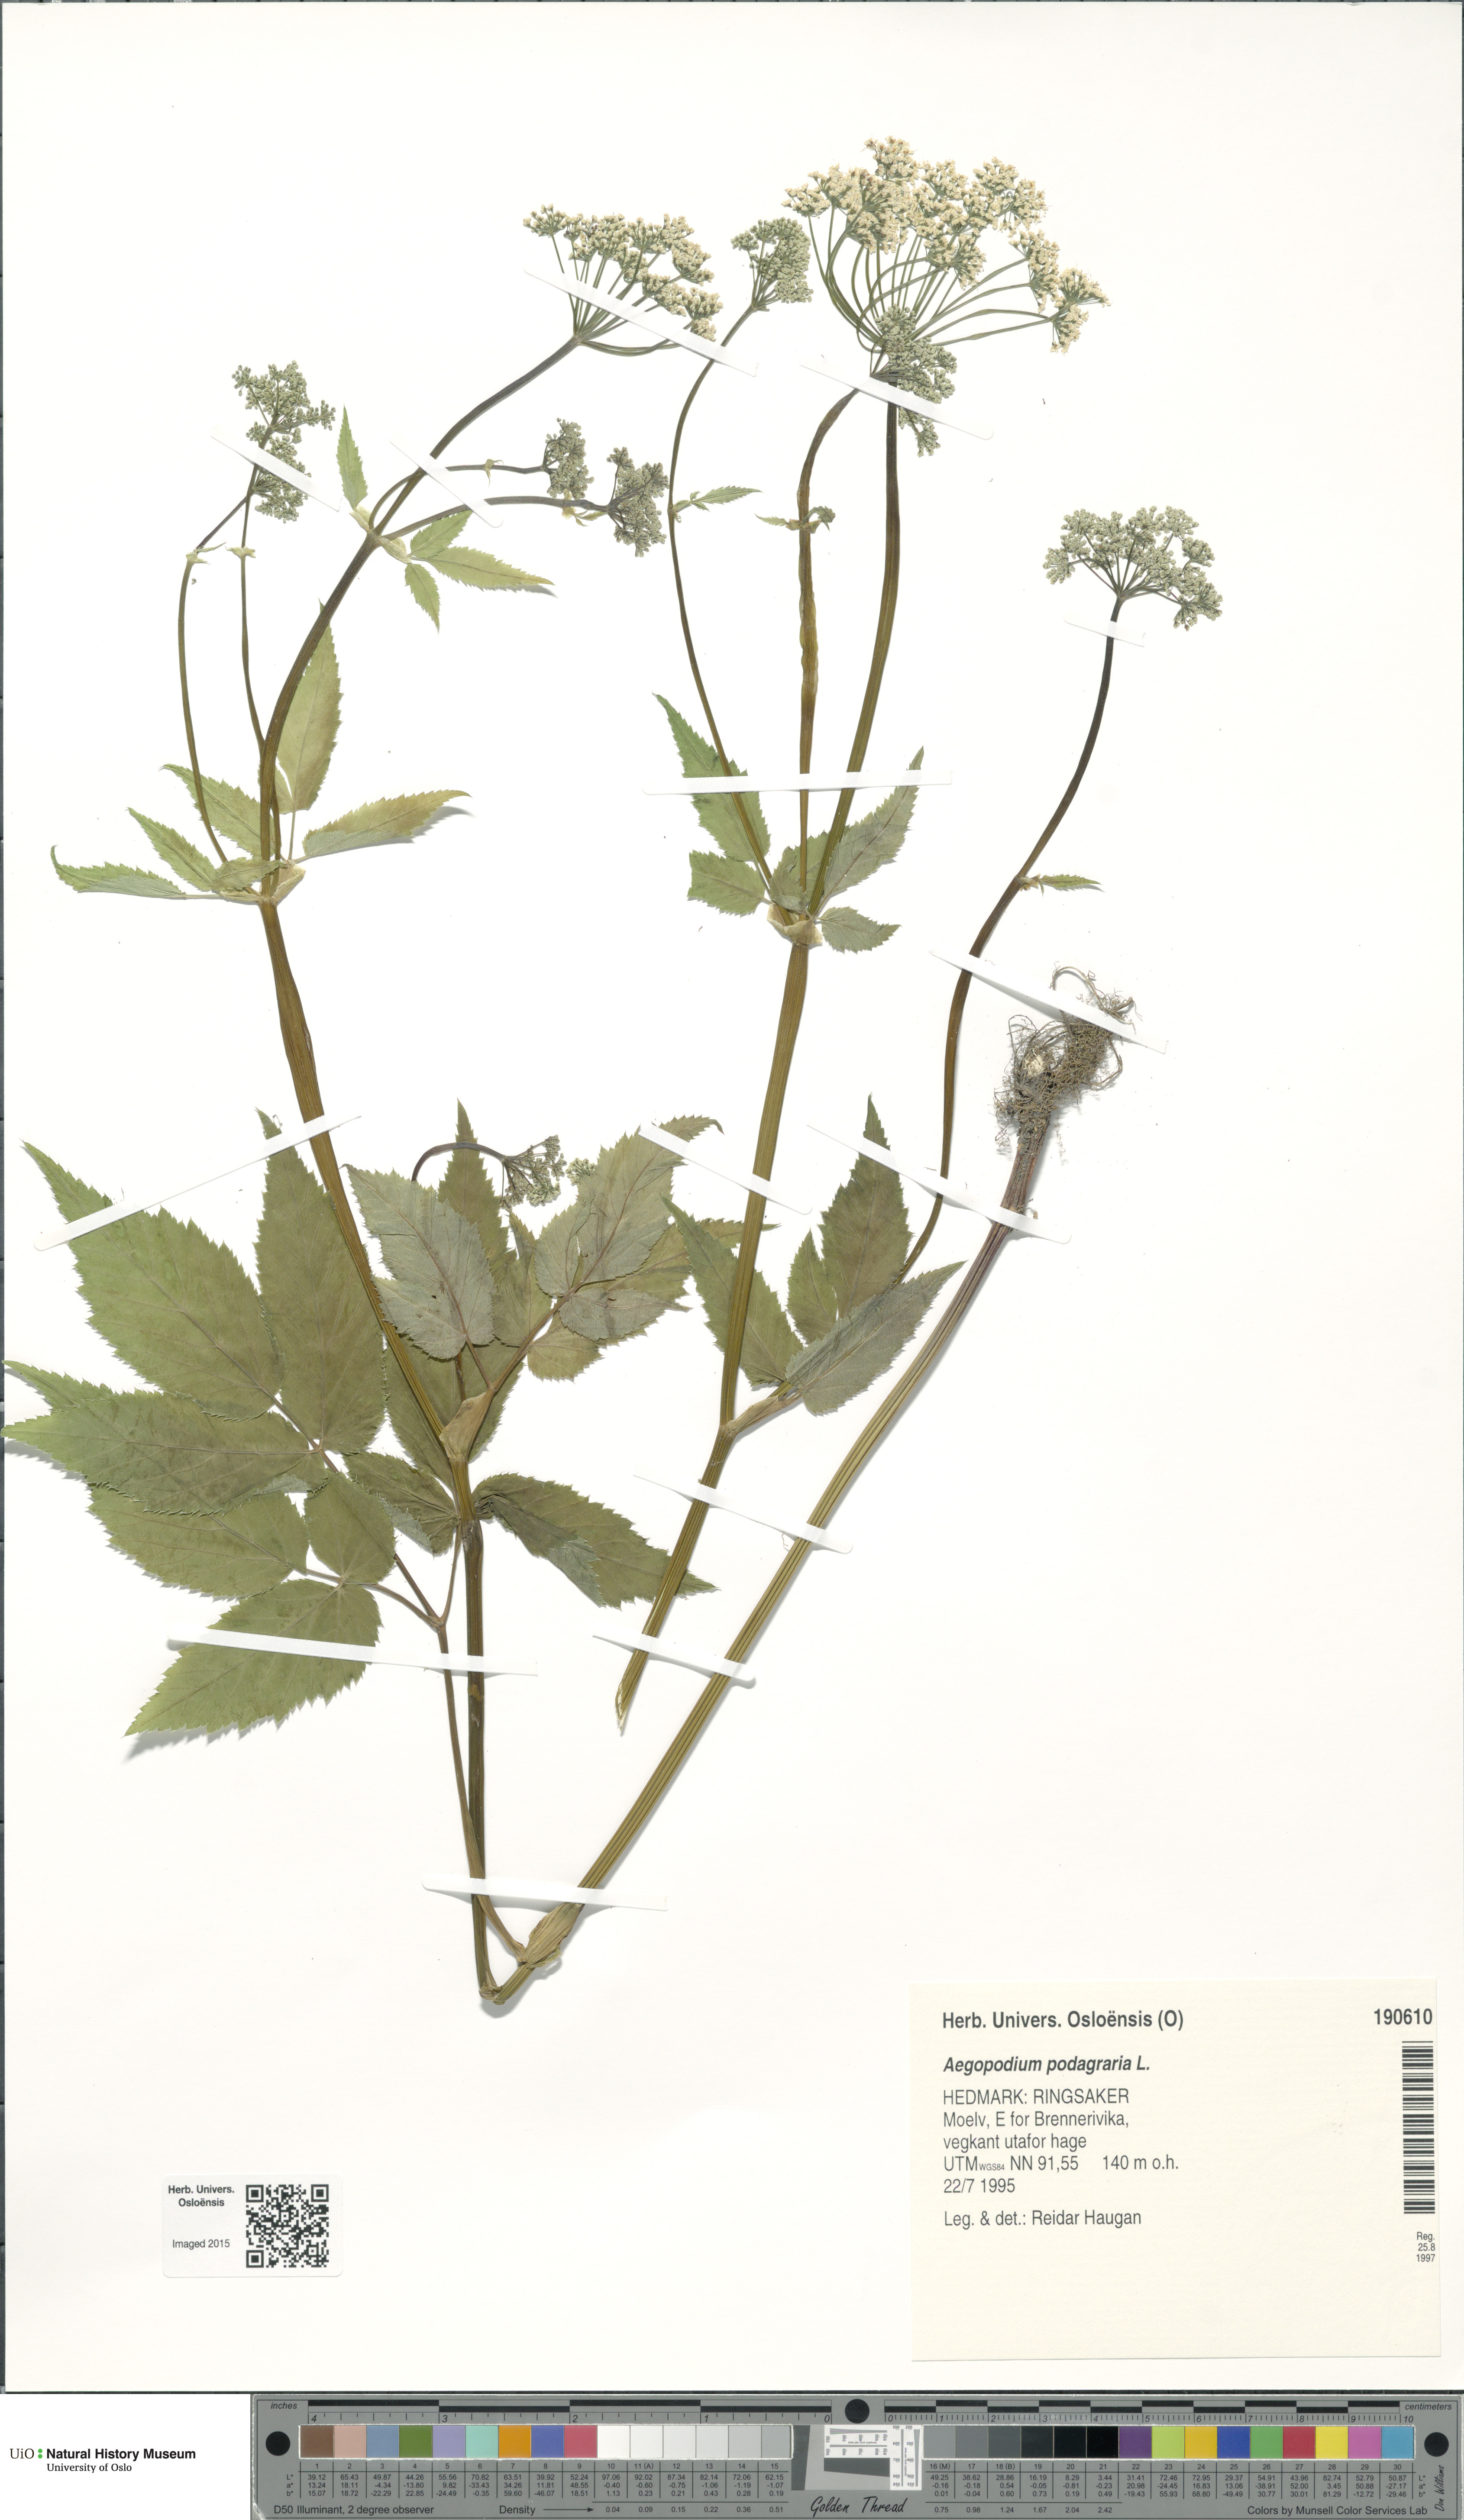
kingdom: Plantae
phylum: Tracheophyta
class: Magnoliopsida
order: Apiales
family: Apiaceae
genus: Aegopodium
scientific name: Aegopodium podagraria
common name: Ground-elder
